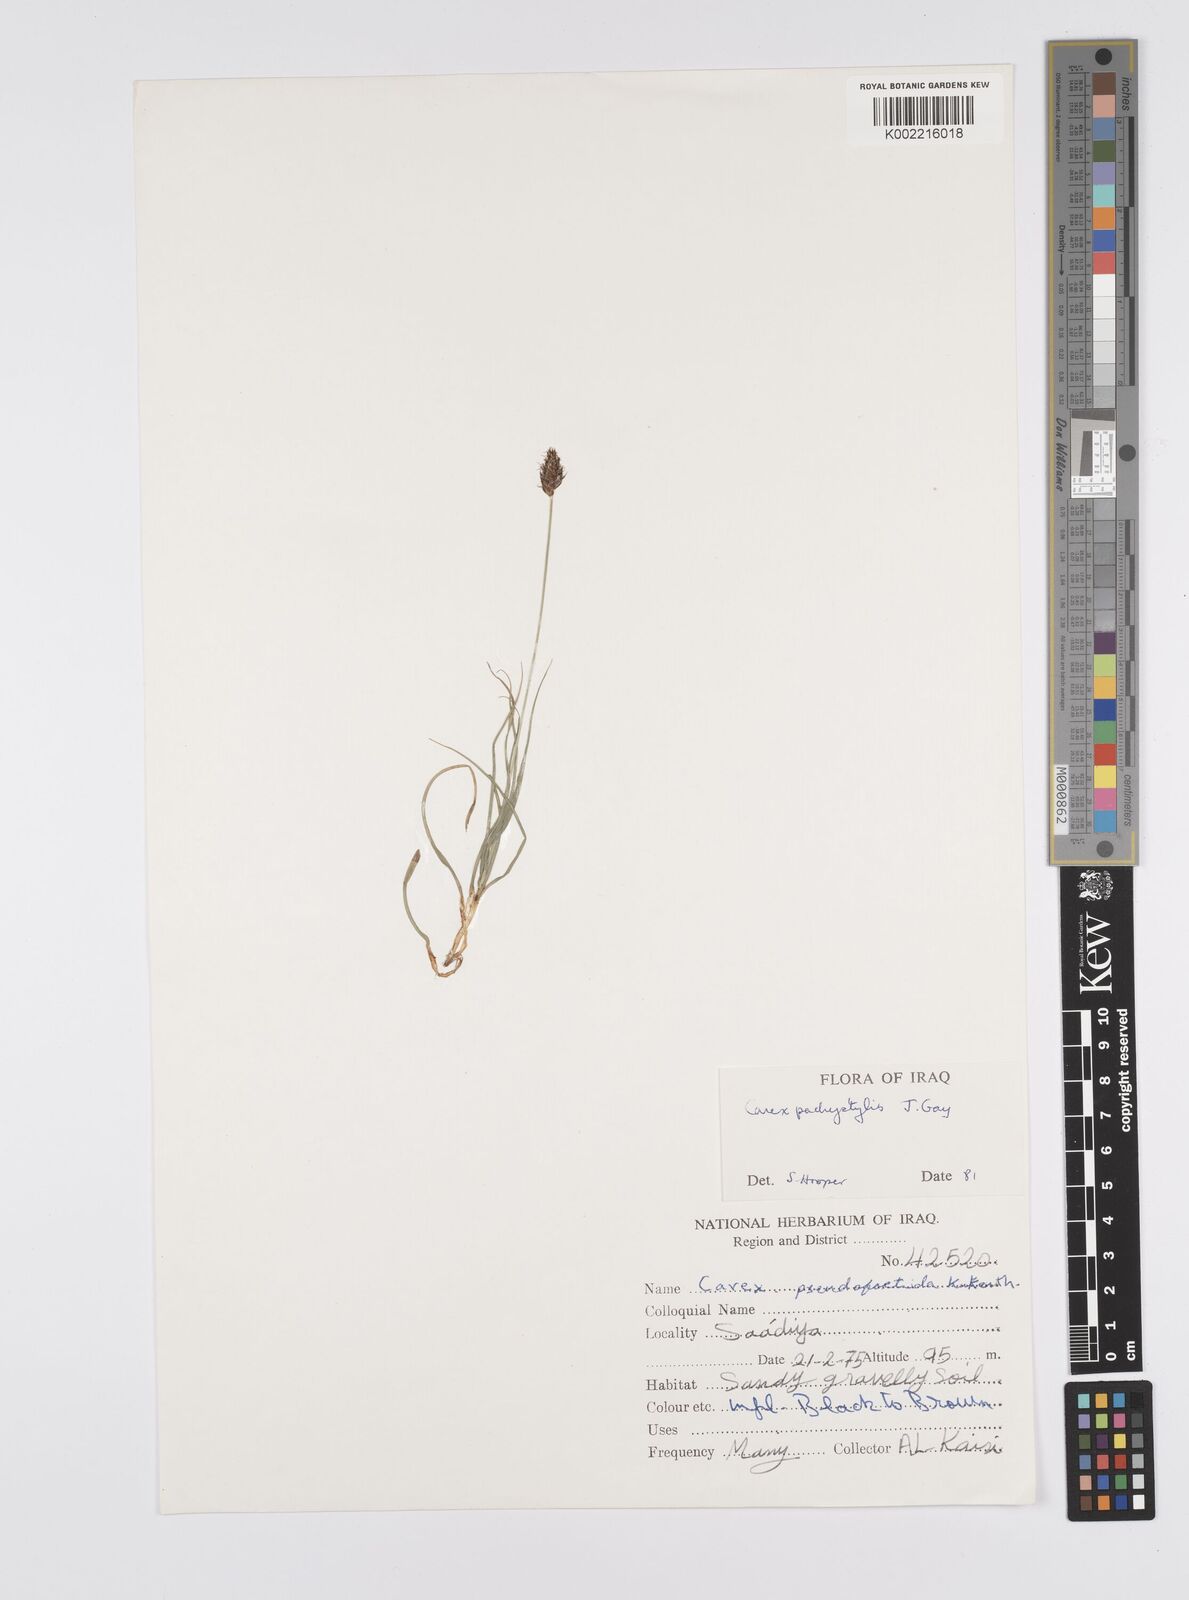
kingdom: Plantae
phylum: Tracheophyta
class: Liliopsida
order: Poales
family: Cyperaceae
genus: Carex
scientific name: Carex pachystylis
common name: Thick-stem sedge
